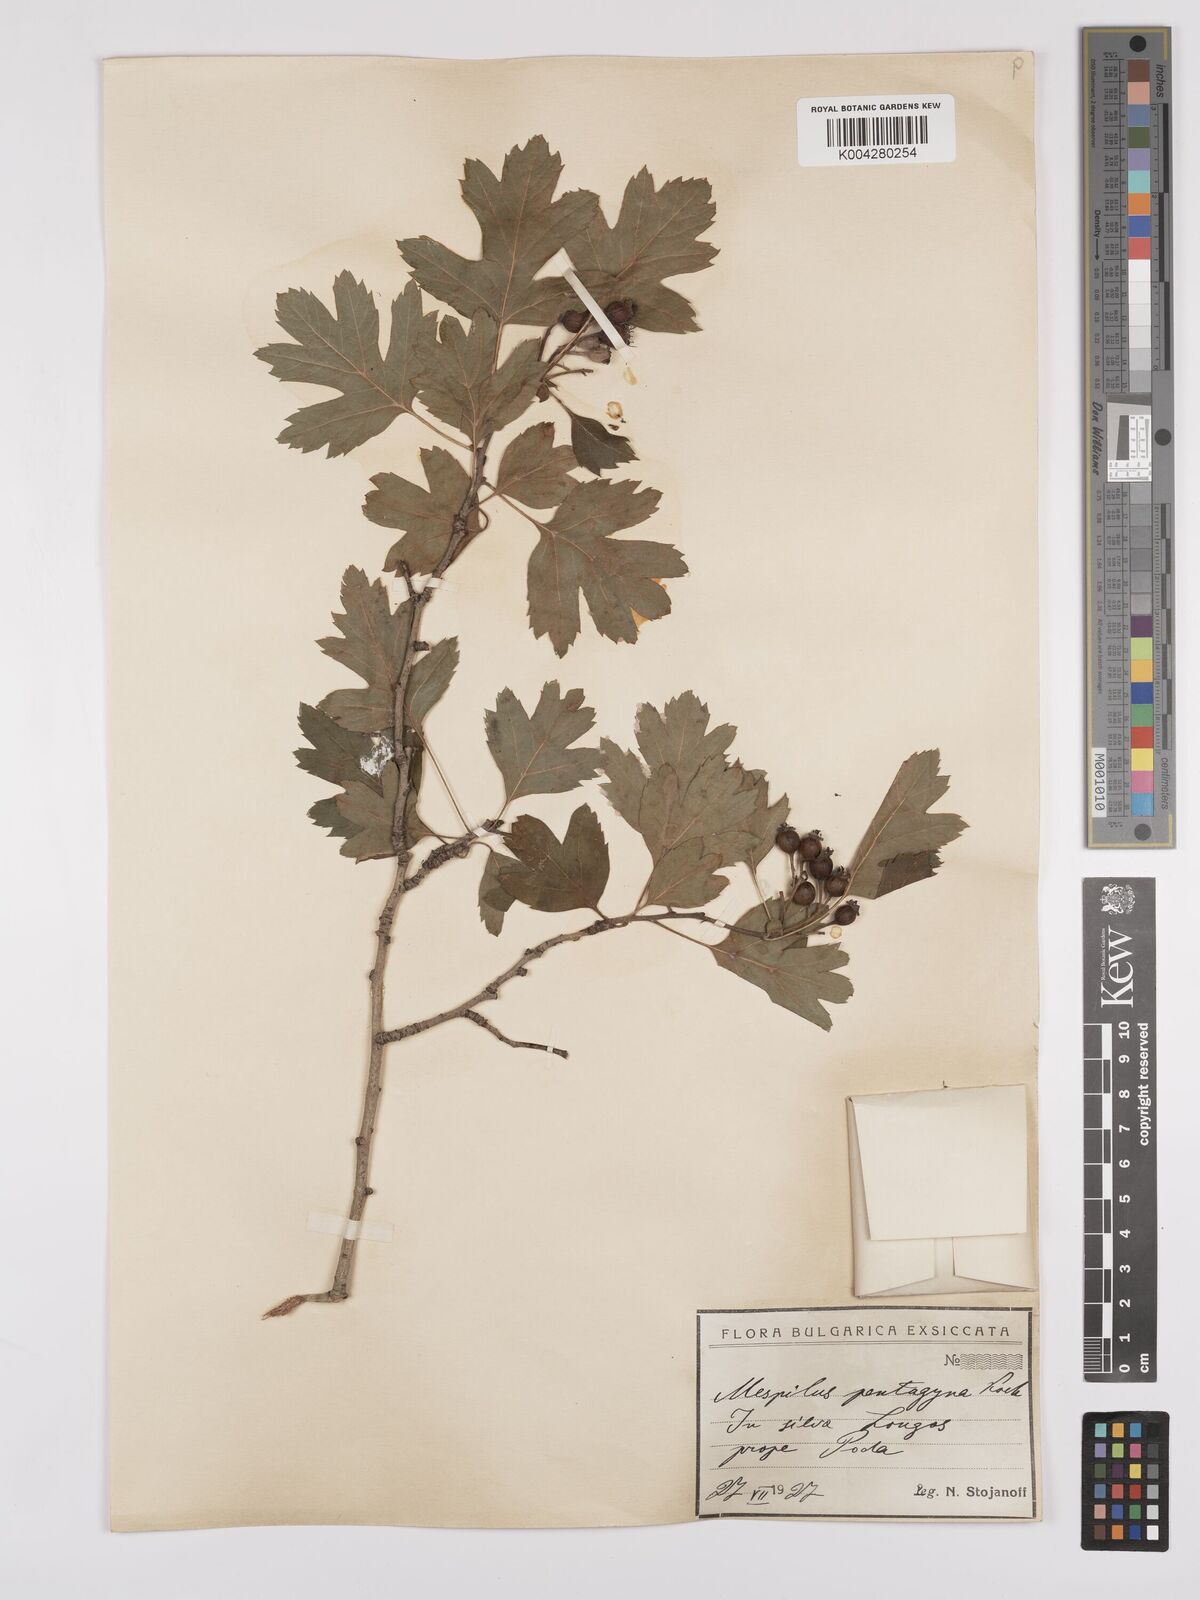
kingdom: Plantae
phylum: Tracheophyta
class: Magnoliopsida
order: Rosales
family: Rosaceae
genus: Crataegus
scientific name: Crataegus pentagyna
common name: Small-flowered black hawthorn
